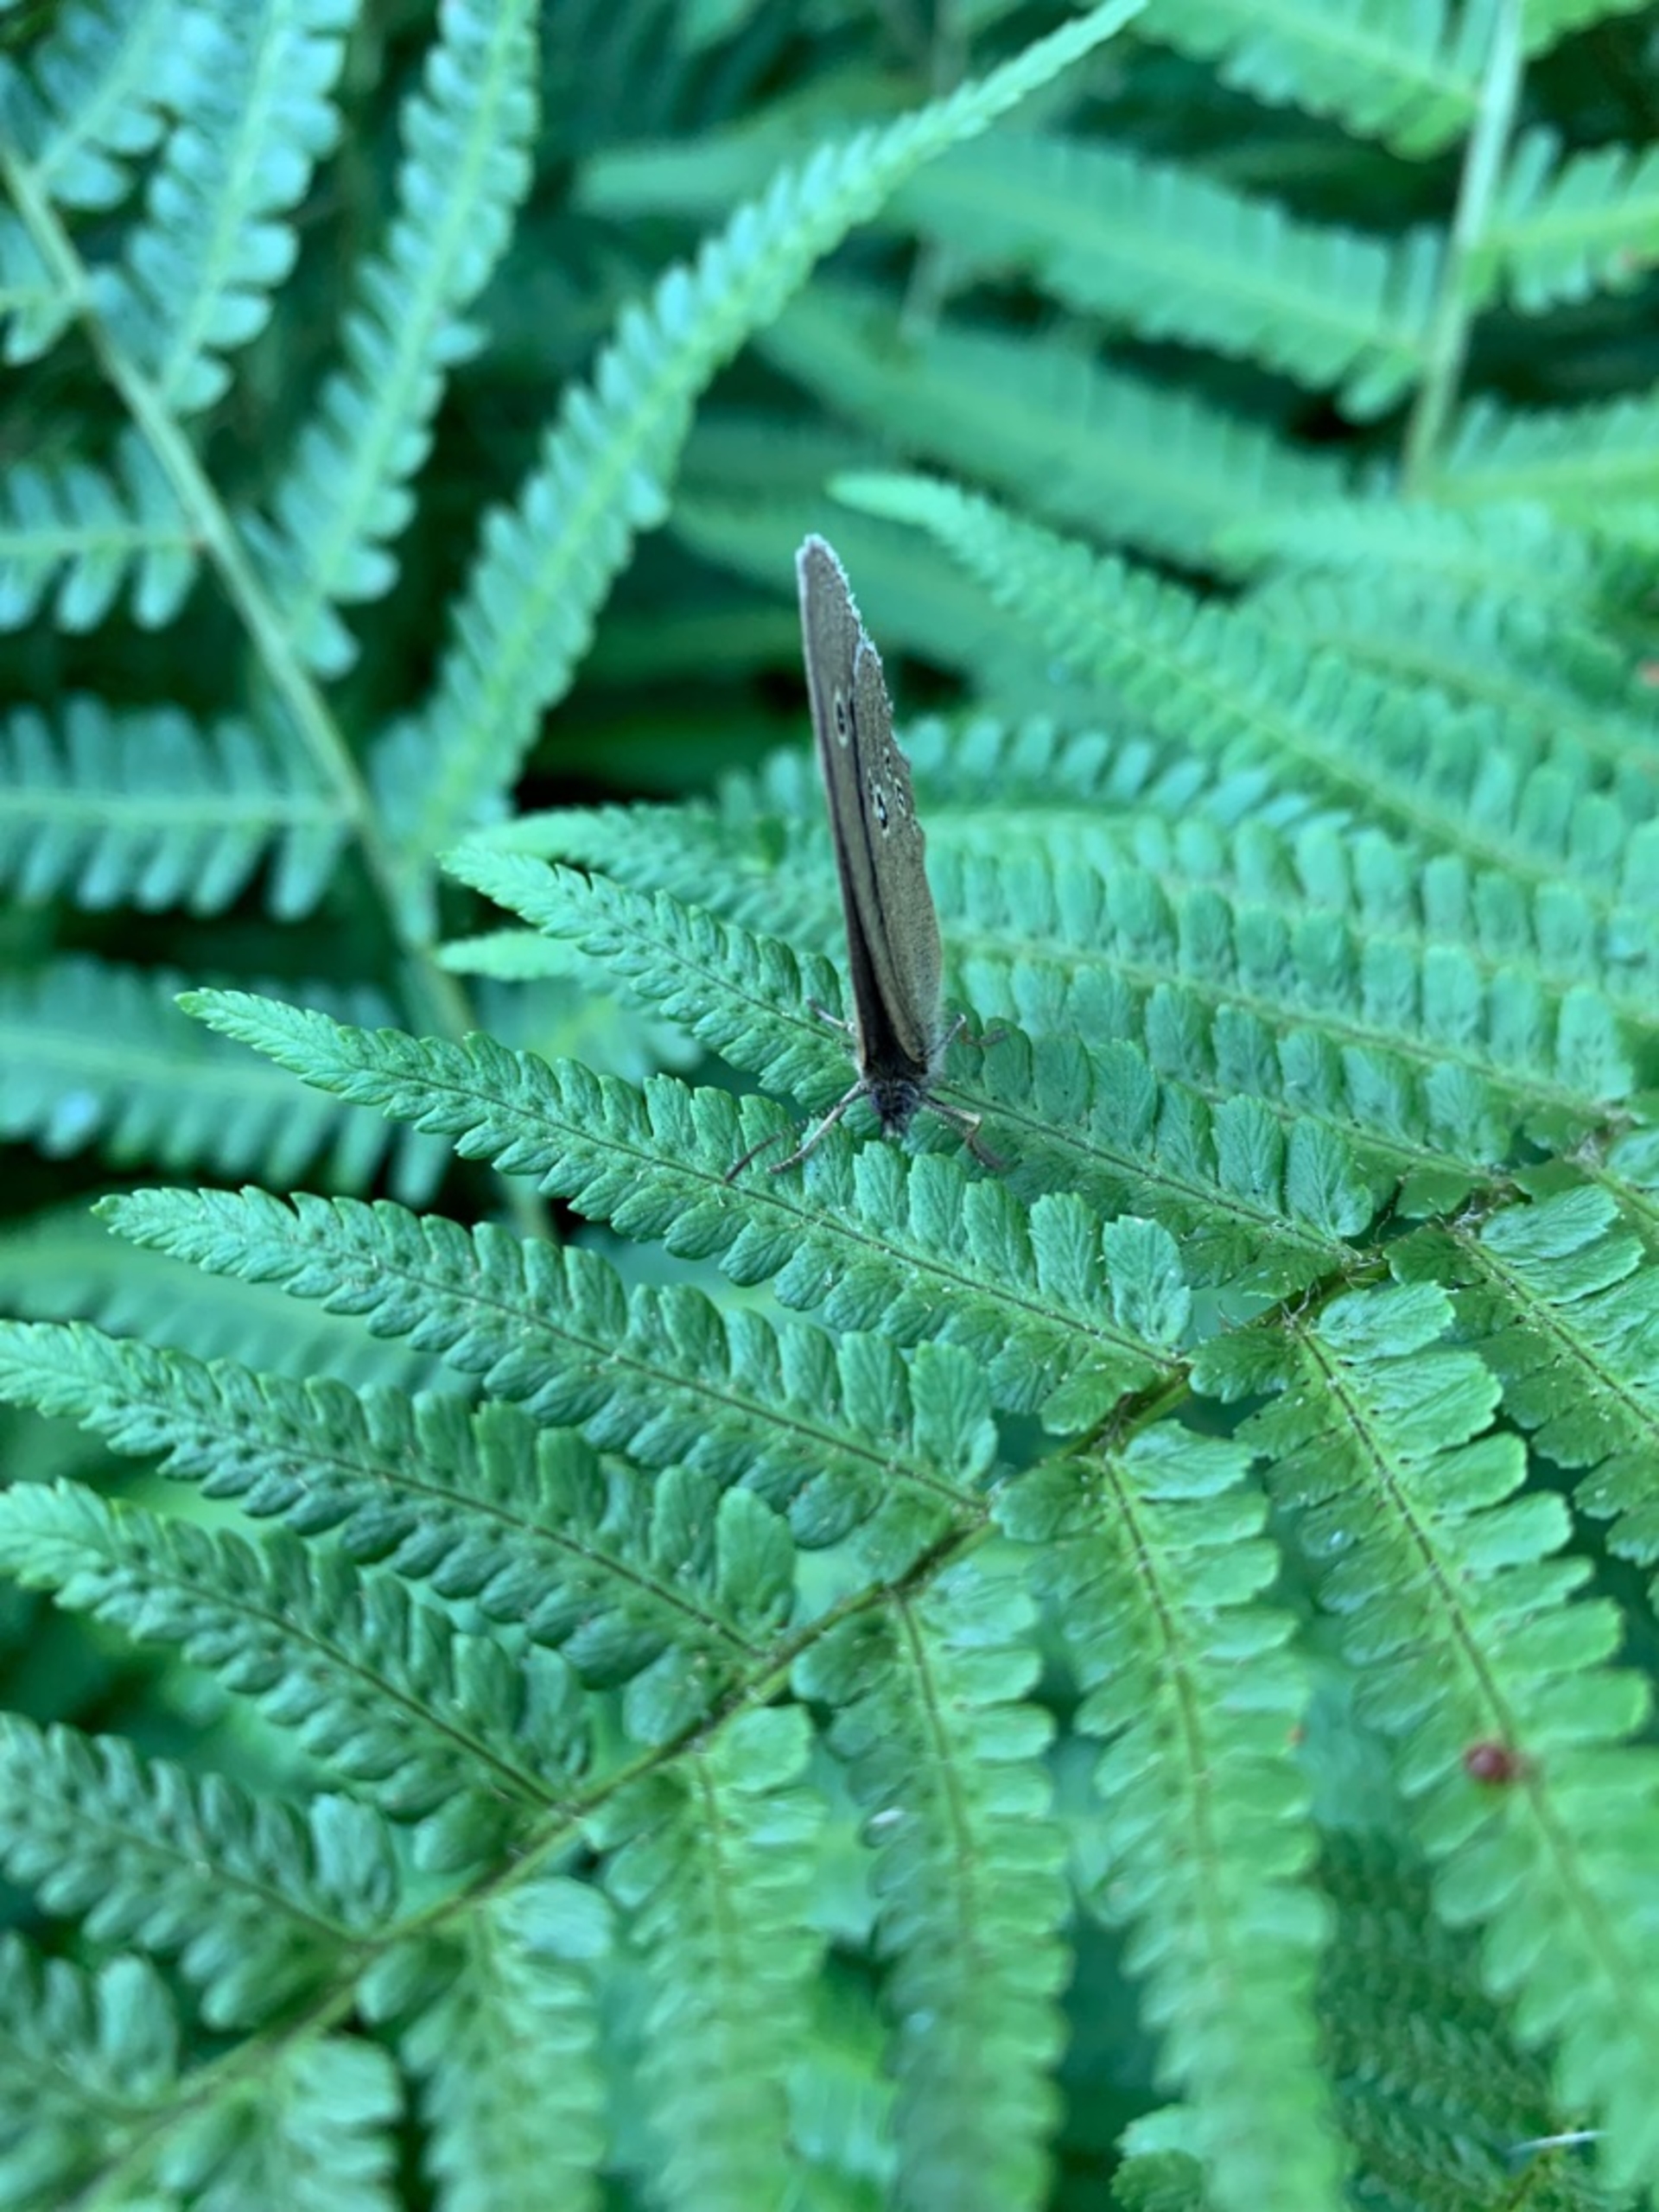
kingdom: Animalia
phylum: Arthropoda
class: Insecta
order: Lepidoptera
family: Nymphalidae
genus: Aphantopus
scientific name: Aphantopus hyperantus
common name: Engrandøje
